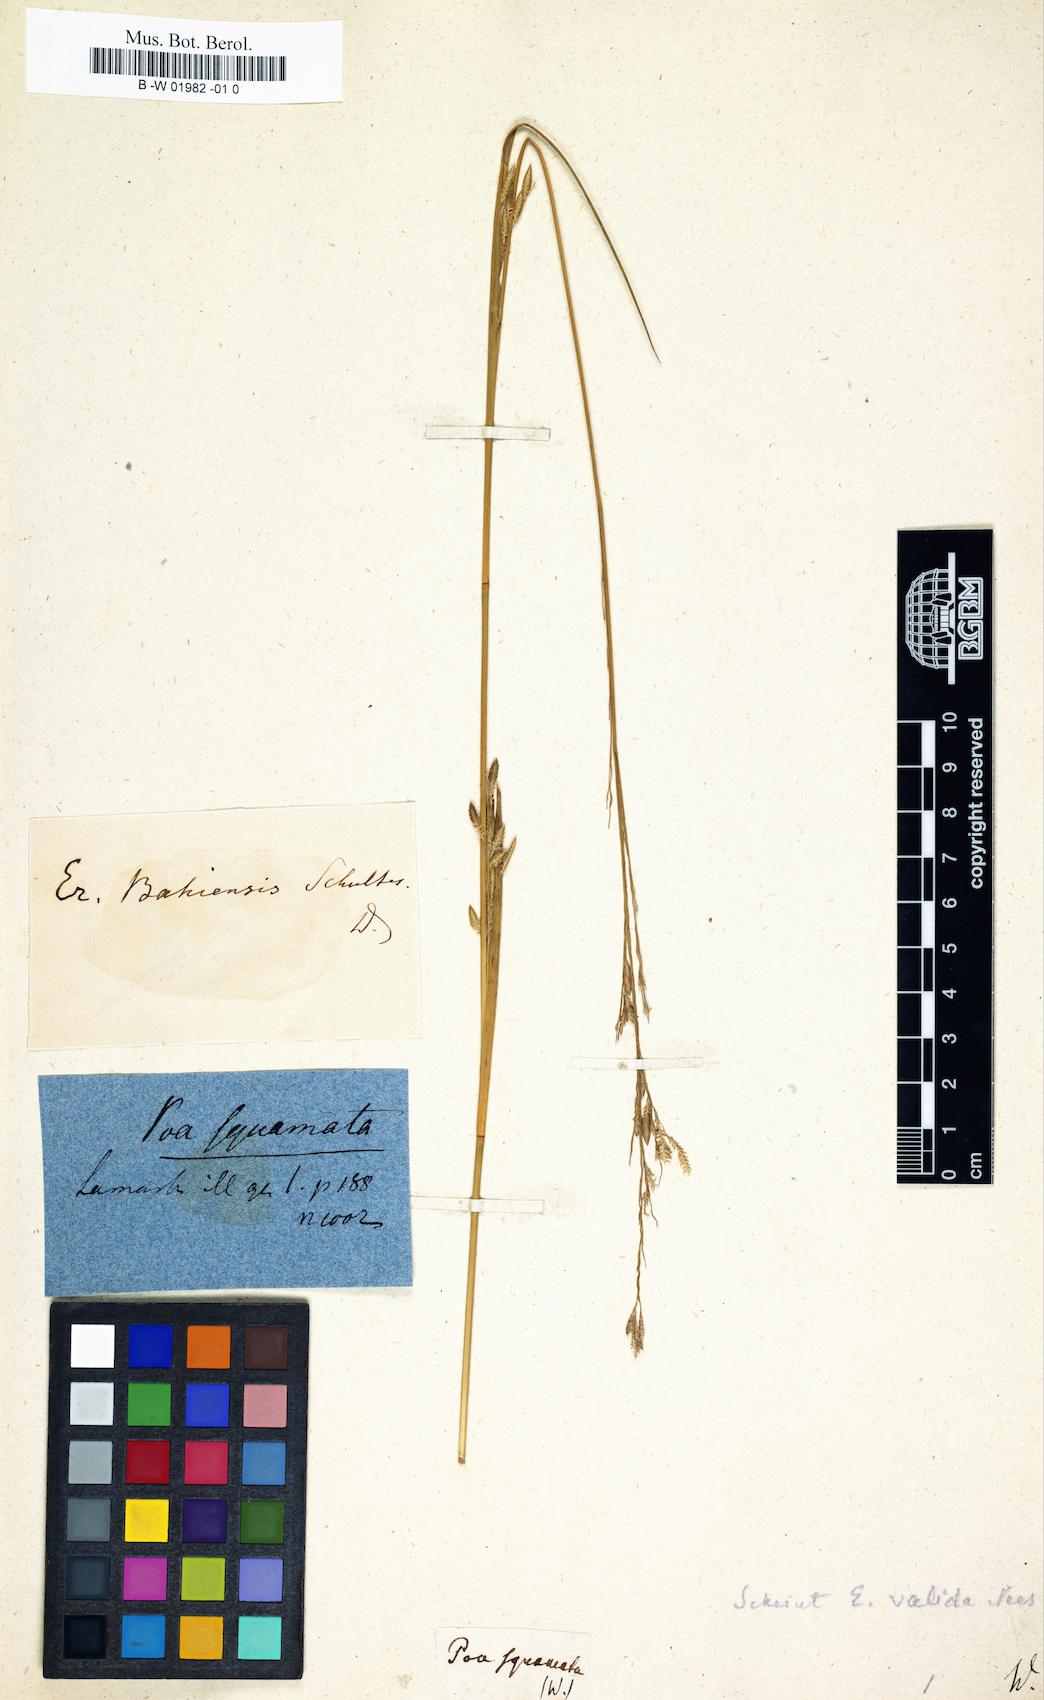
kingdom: Plantae
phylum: Tracheophyta
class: Liliopsida
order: Poales
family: Poaceae
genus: Eragrostis
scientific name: Eragrostis squamata
